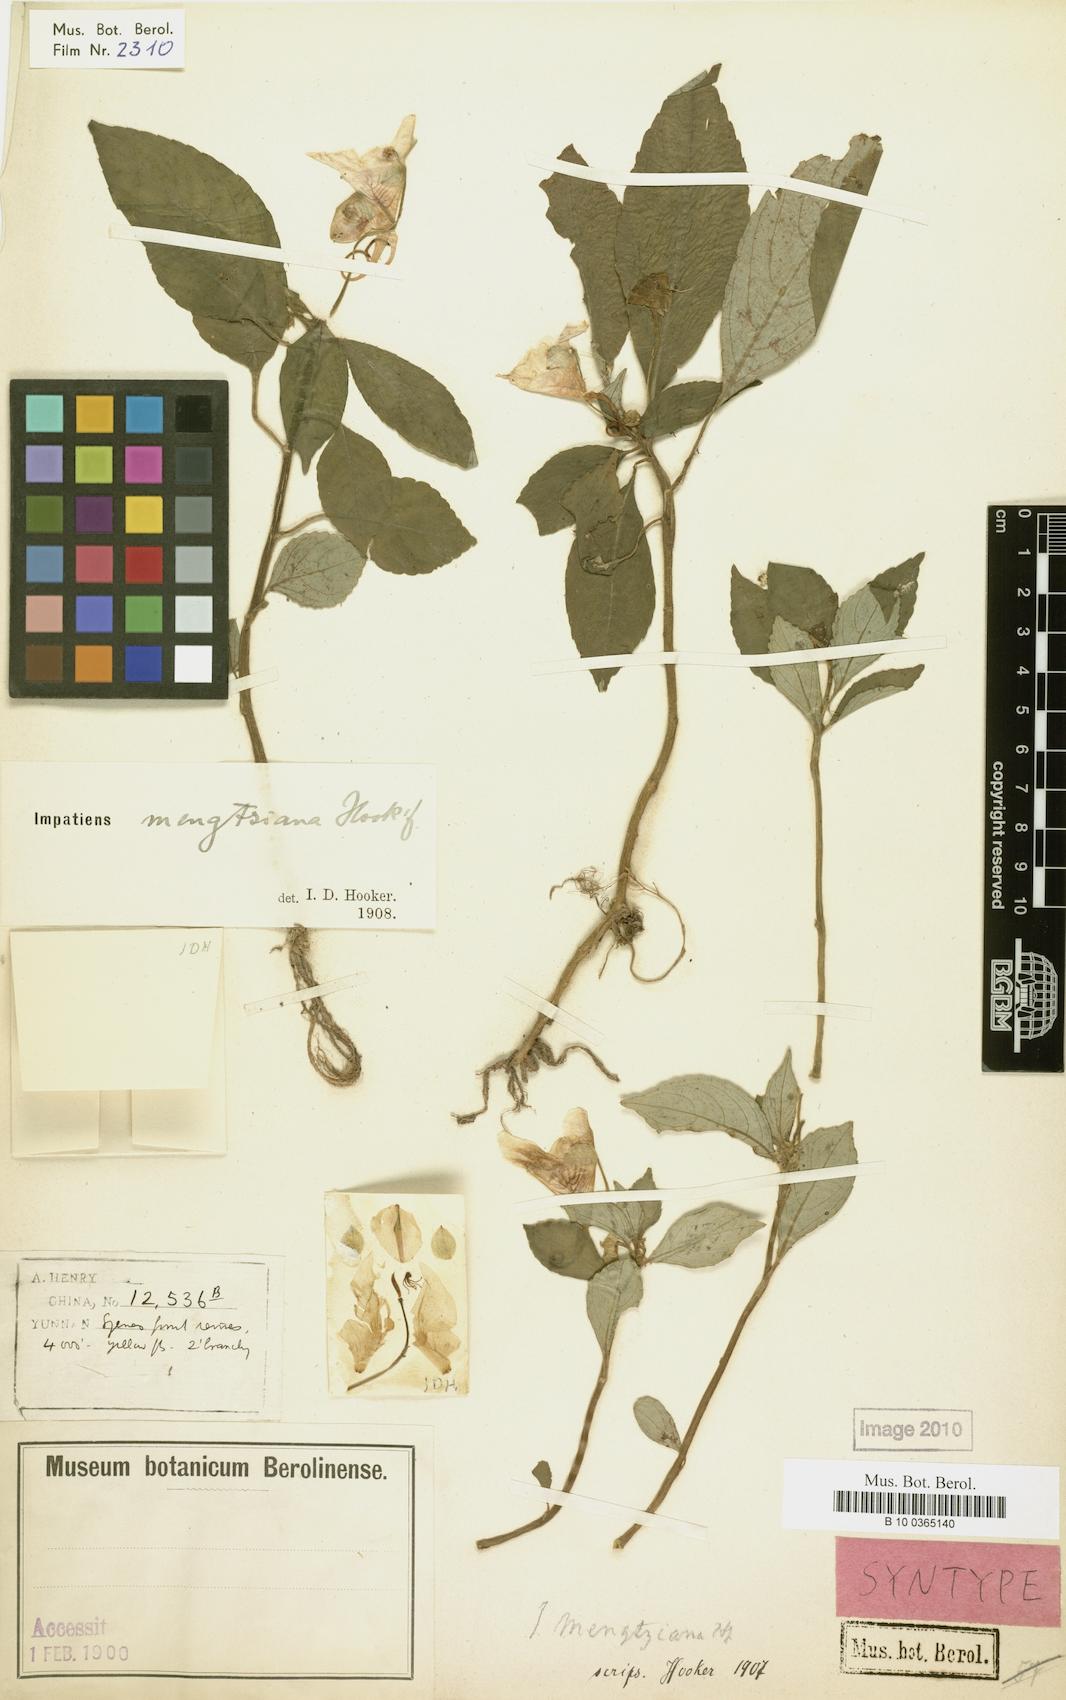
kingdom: Plantae
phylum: Tracheophyta
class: Magnoliopsida
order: Ericales
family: Balsaminaceae
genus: Impatiens
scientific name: Impatiens pulchra
